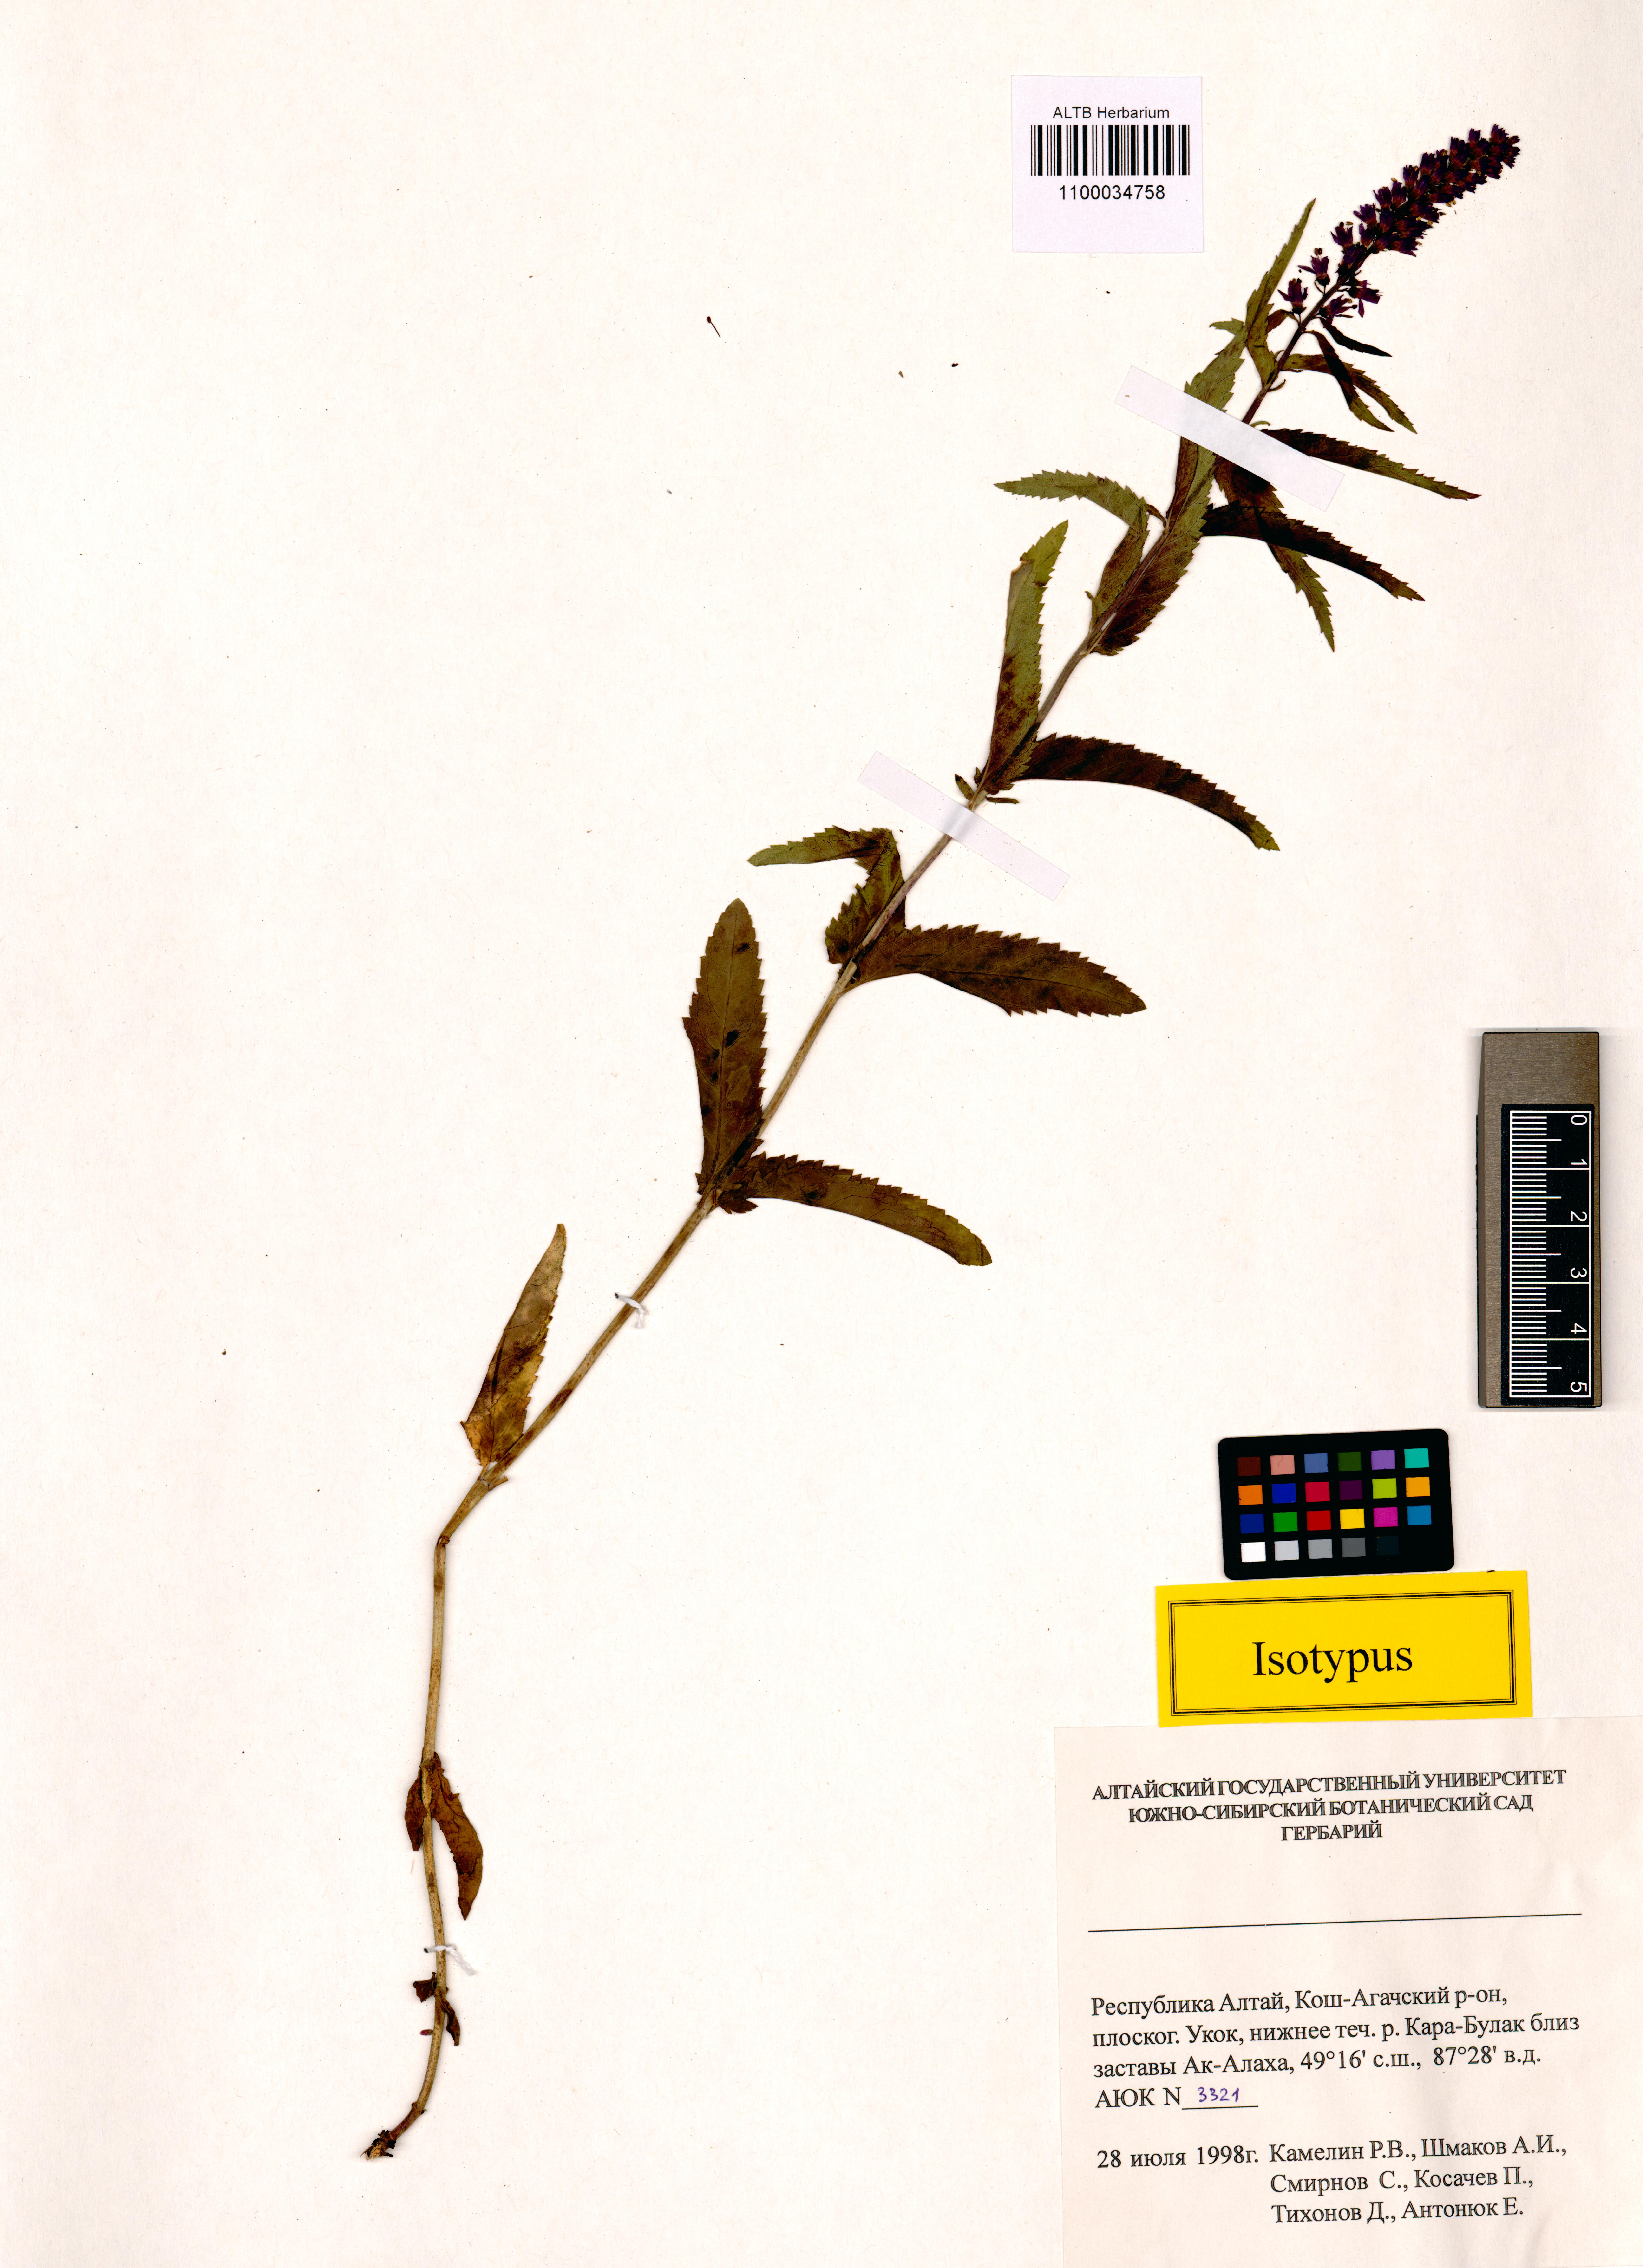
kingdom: Plantae
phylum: Tracheophyta
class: Magnoliopsida
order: Lamiales
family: Plantaginaceae
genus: Veronica
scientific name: Veronica schmakovii
